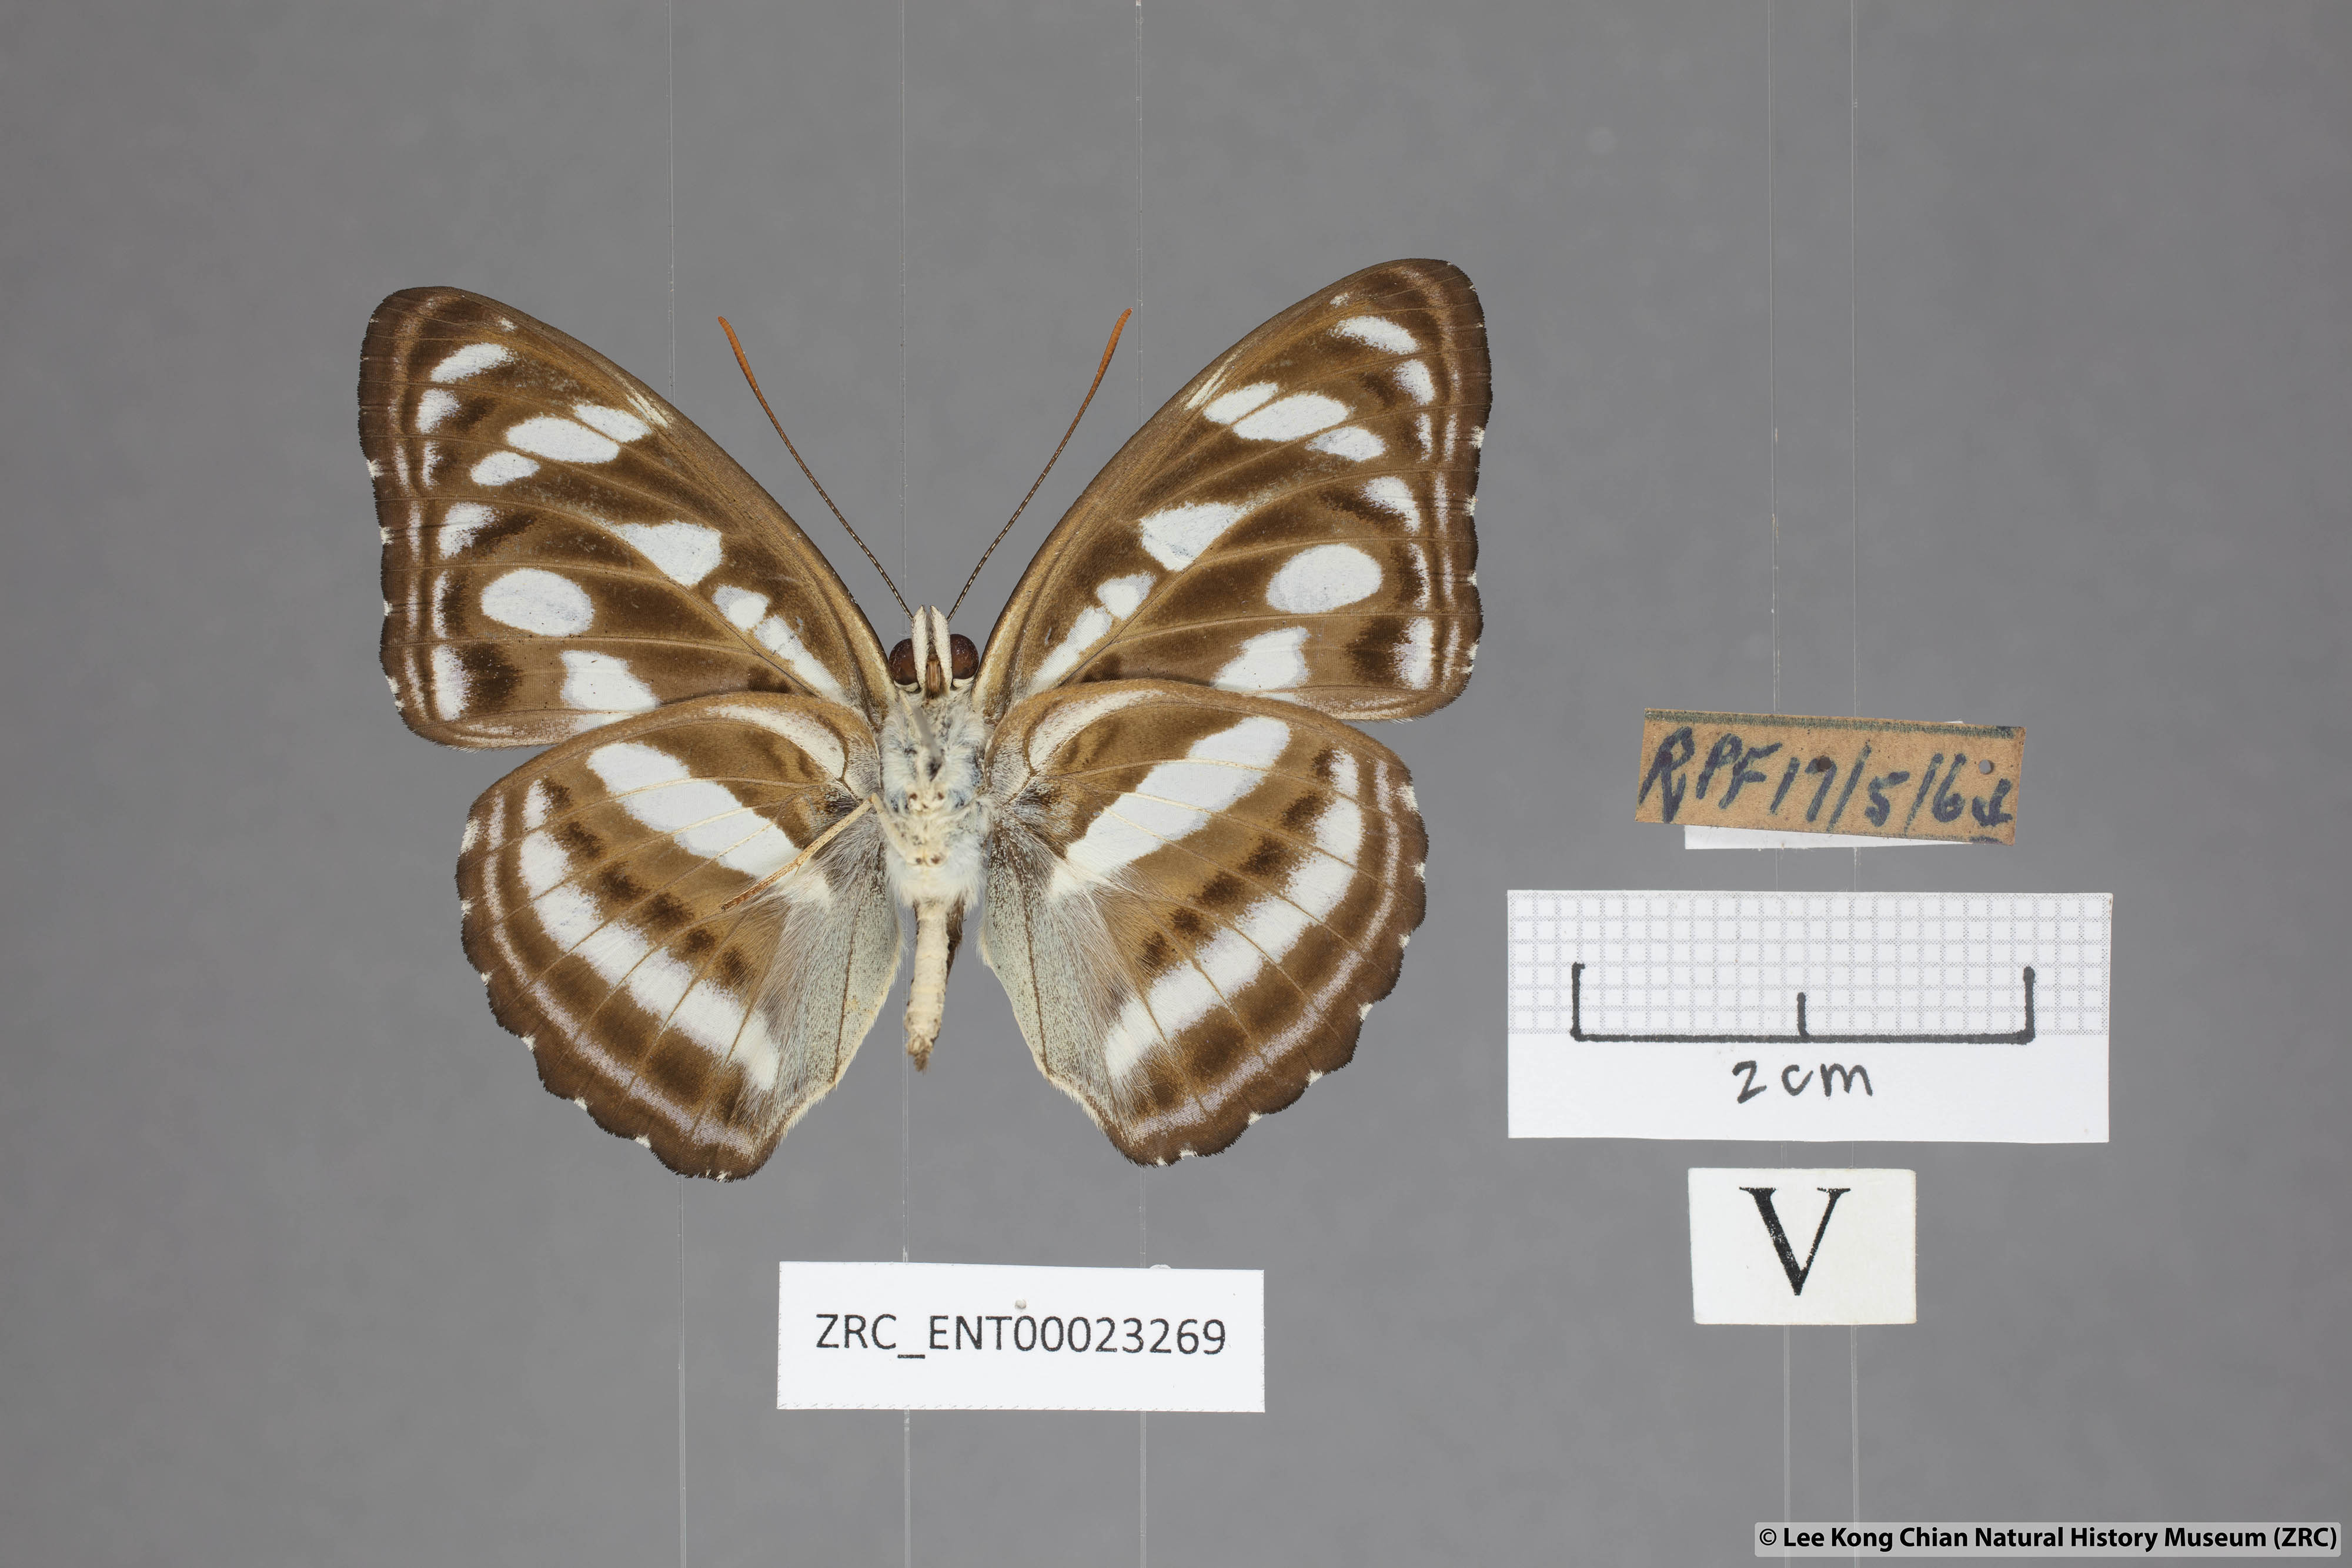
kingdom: Animalia
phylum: Arthropoda
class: Insecta
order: Lepidoptera
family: Nymphalidae
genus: Parathyma
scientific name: Parathyma reta
